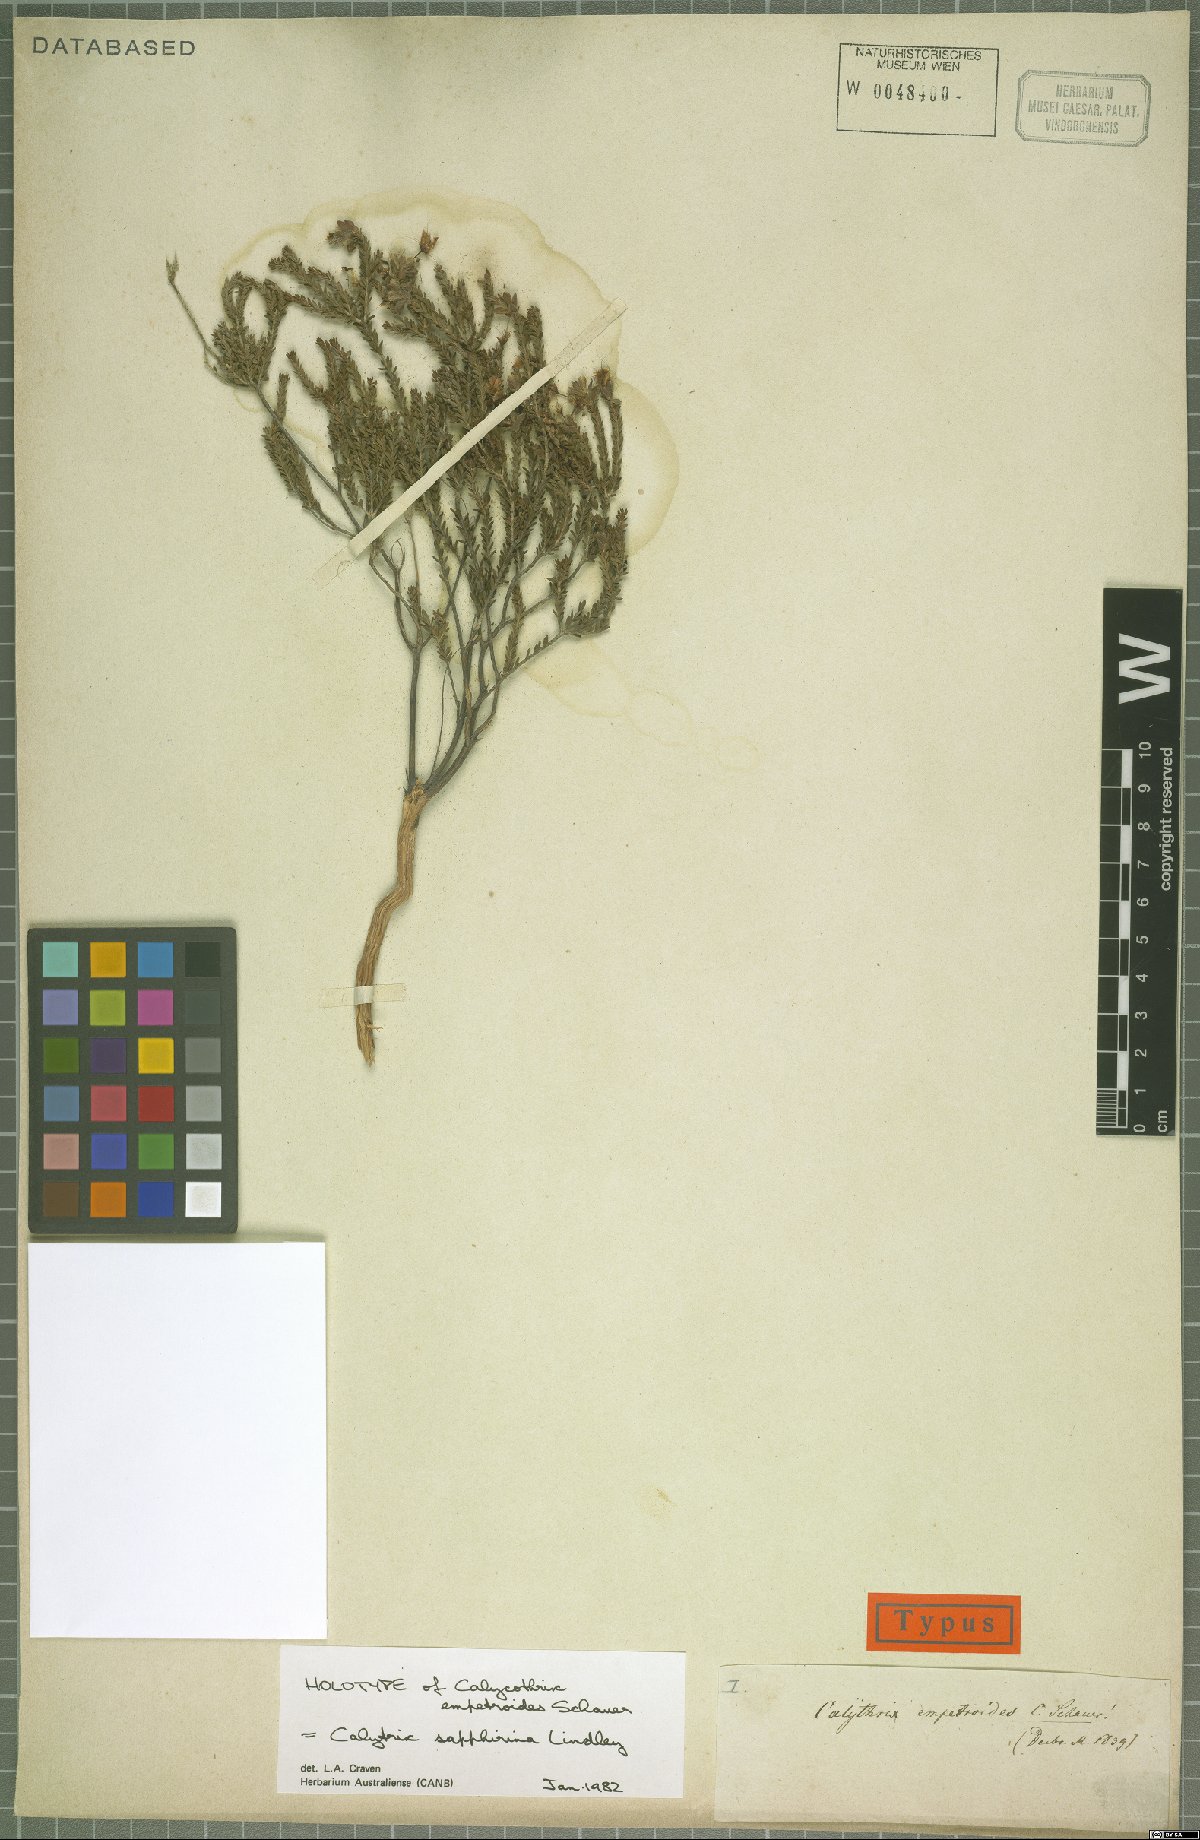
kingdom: Plantae
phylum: Tracheophyta
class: Magnoliopsida
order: Myrtales
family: Myrtaceae
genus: Calytrix
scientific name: Calytrix sapphirina
